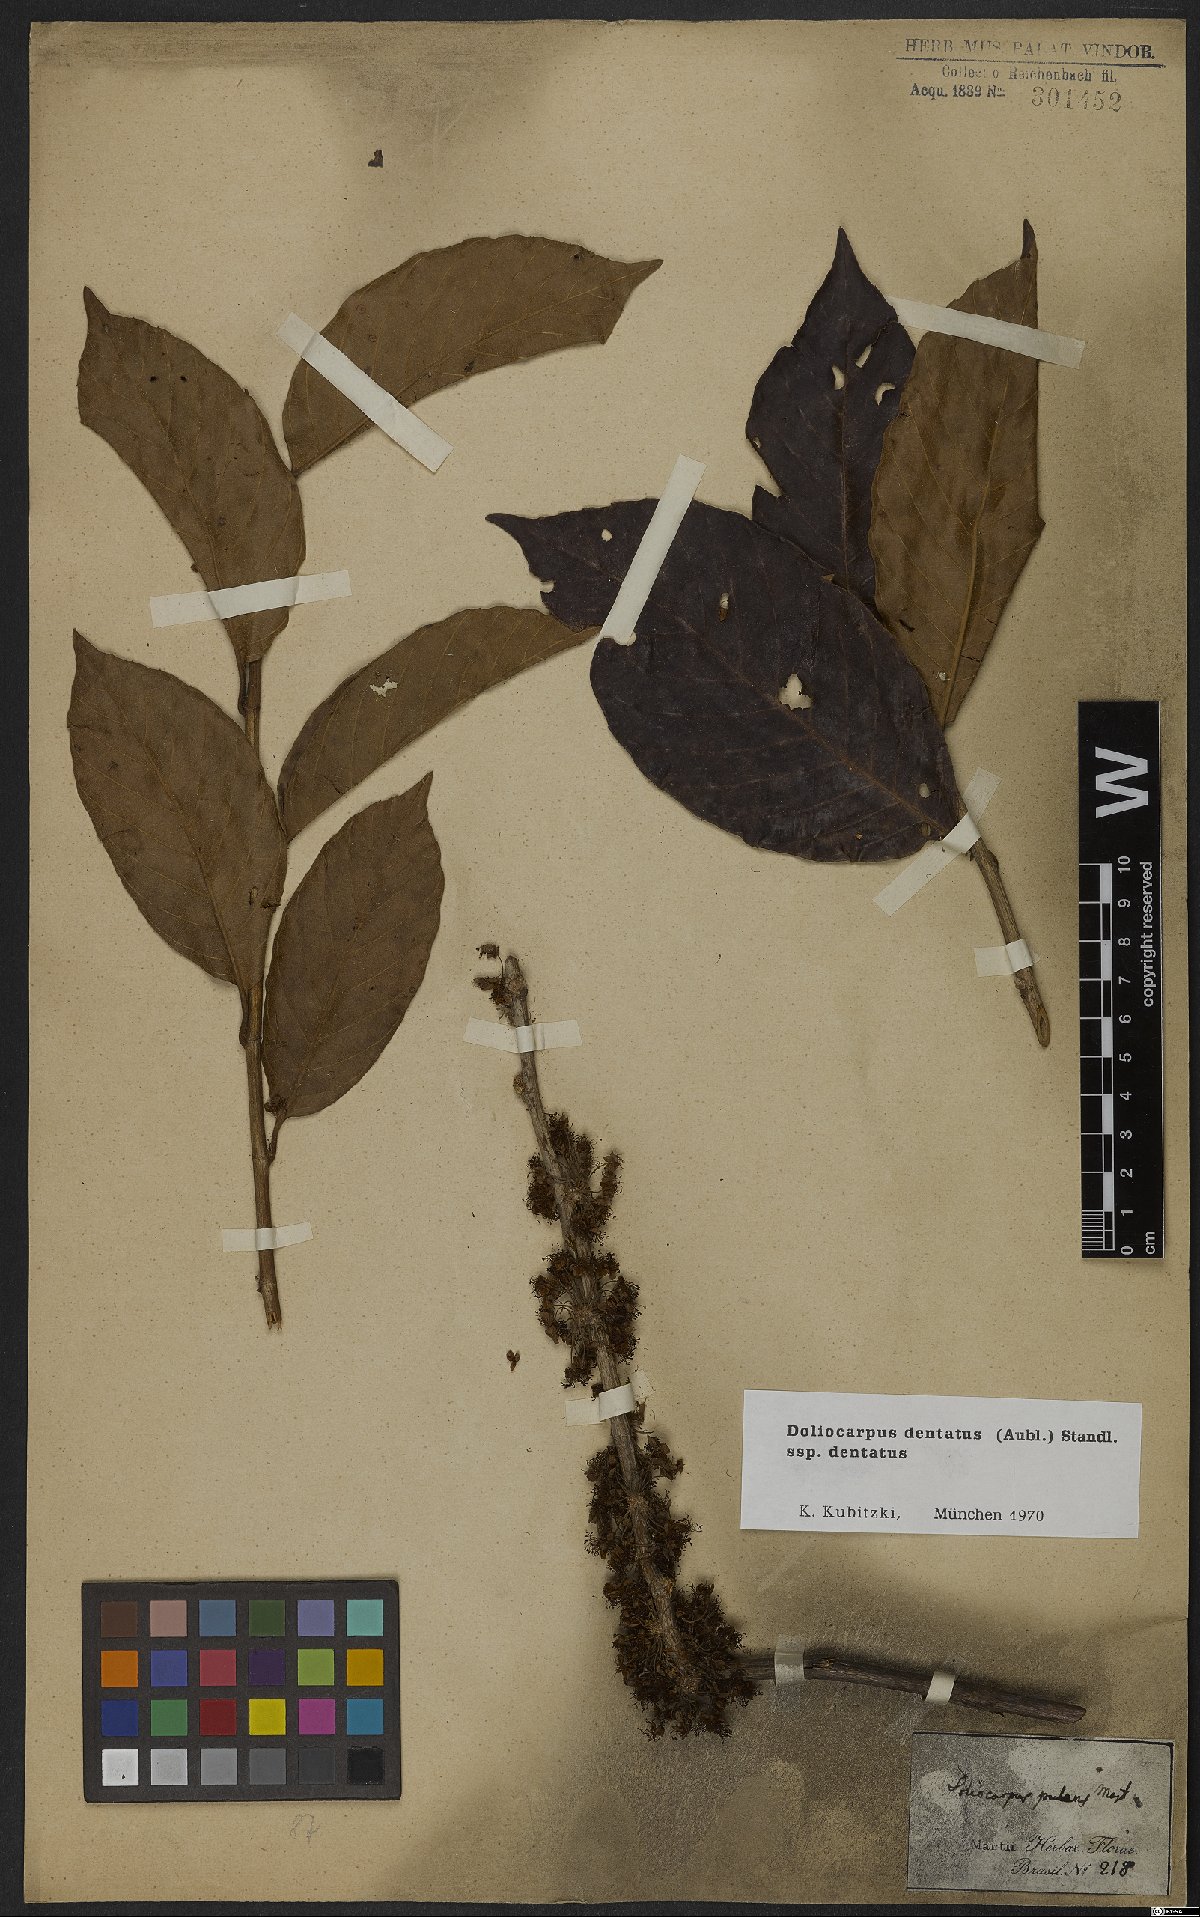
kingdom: Plantae
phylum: Tracheophyta
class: Magnoliopsida
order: Dilleniales
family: Dilleniaceae
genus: Doliocarpus
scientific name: Doliocarpus dentatus
